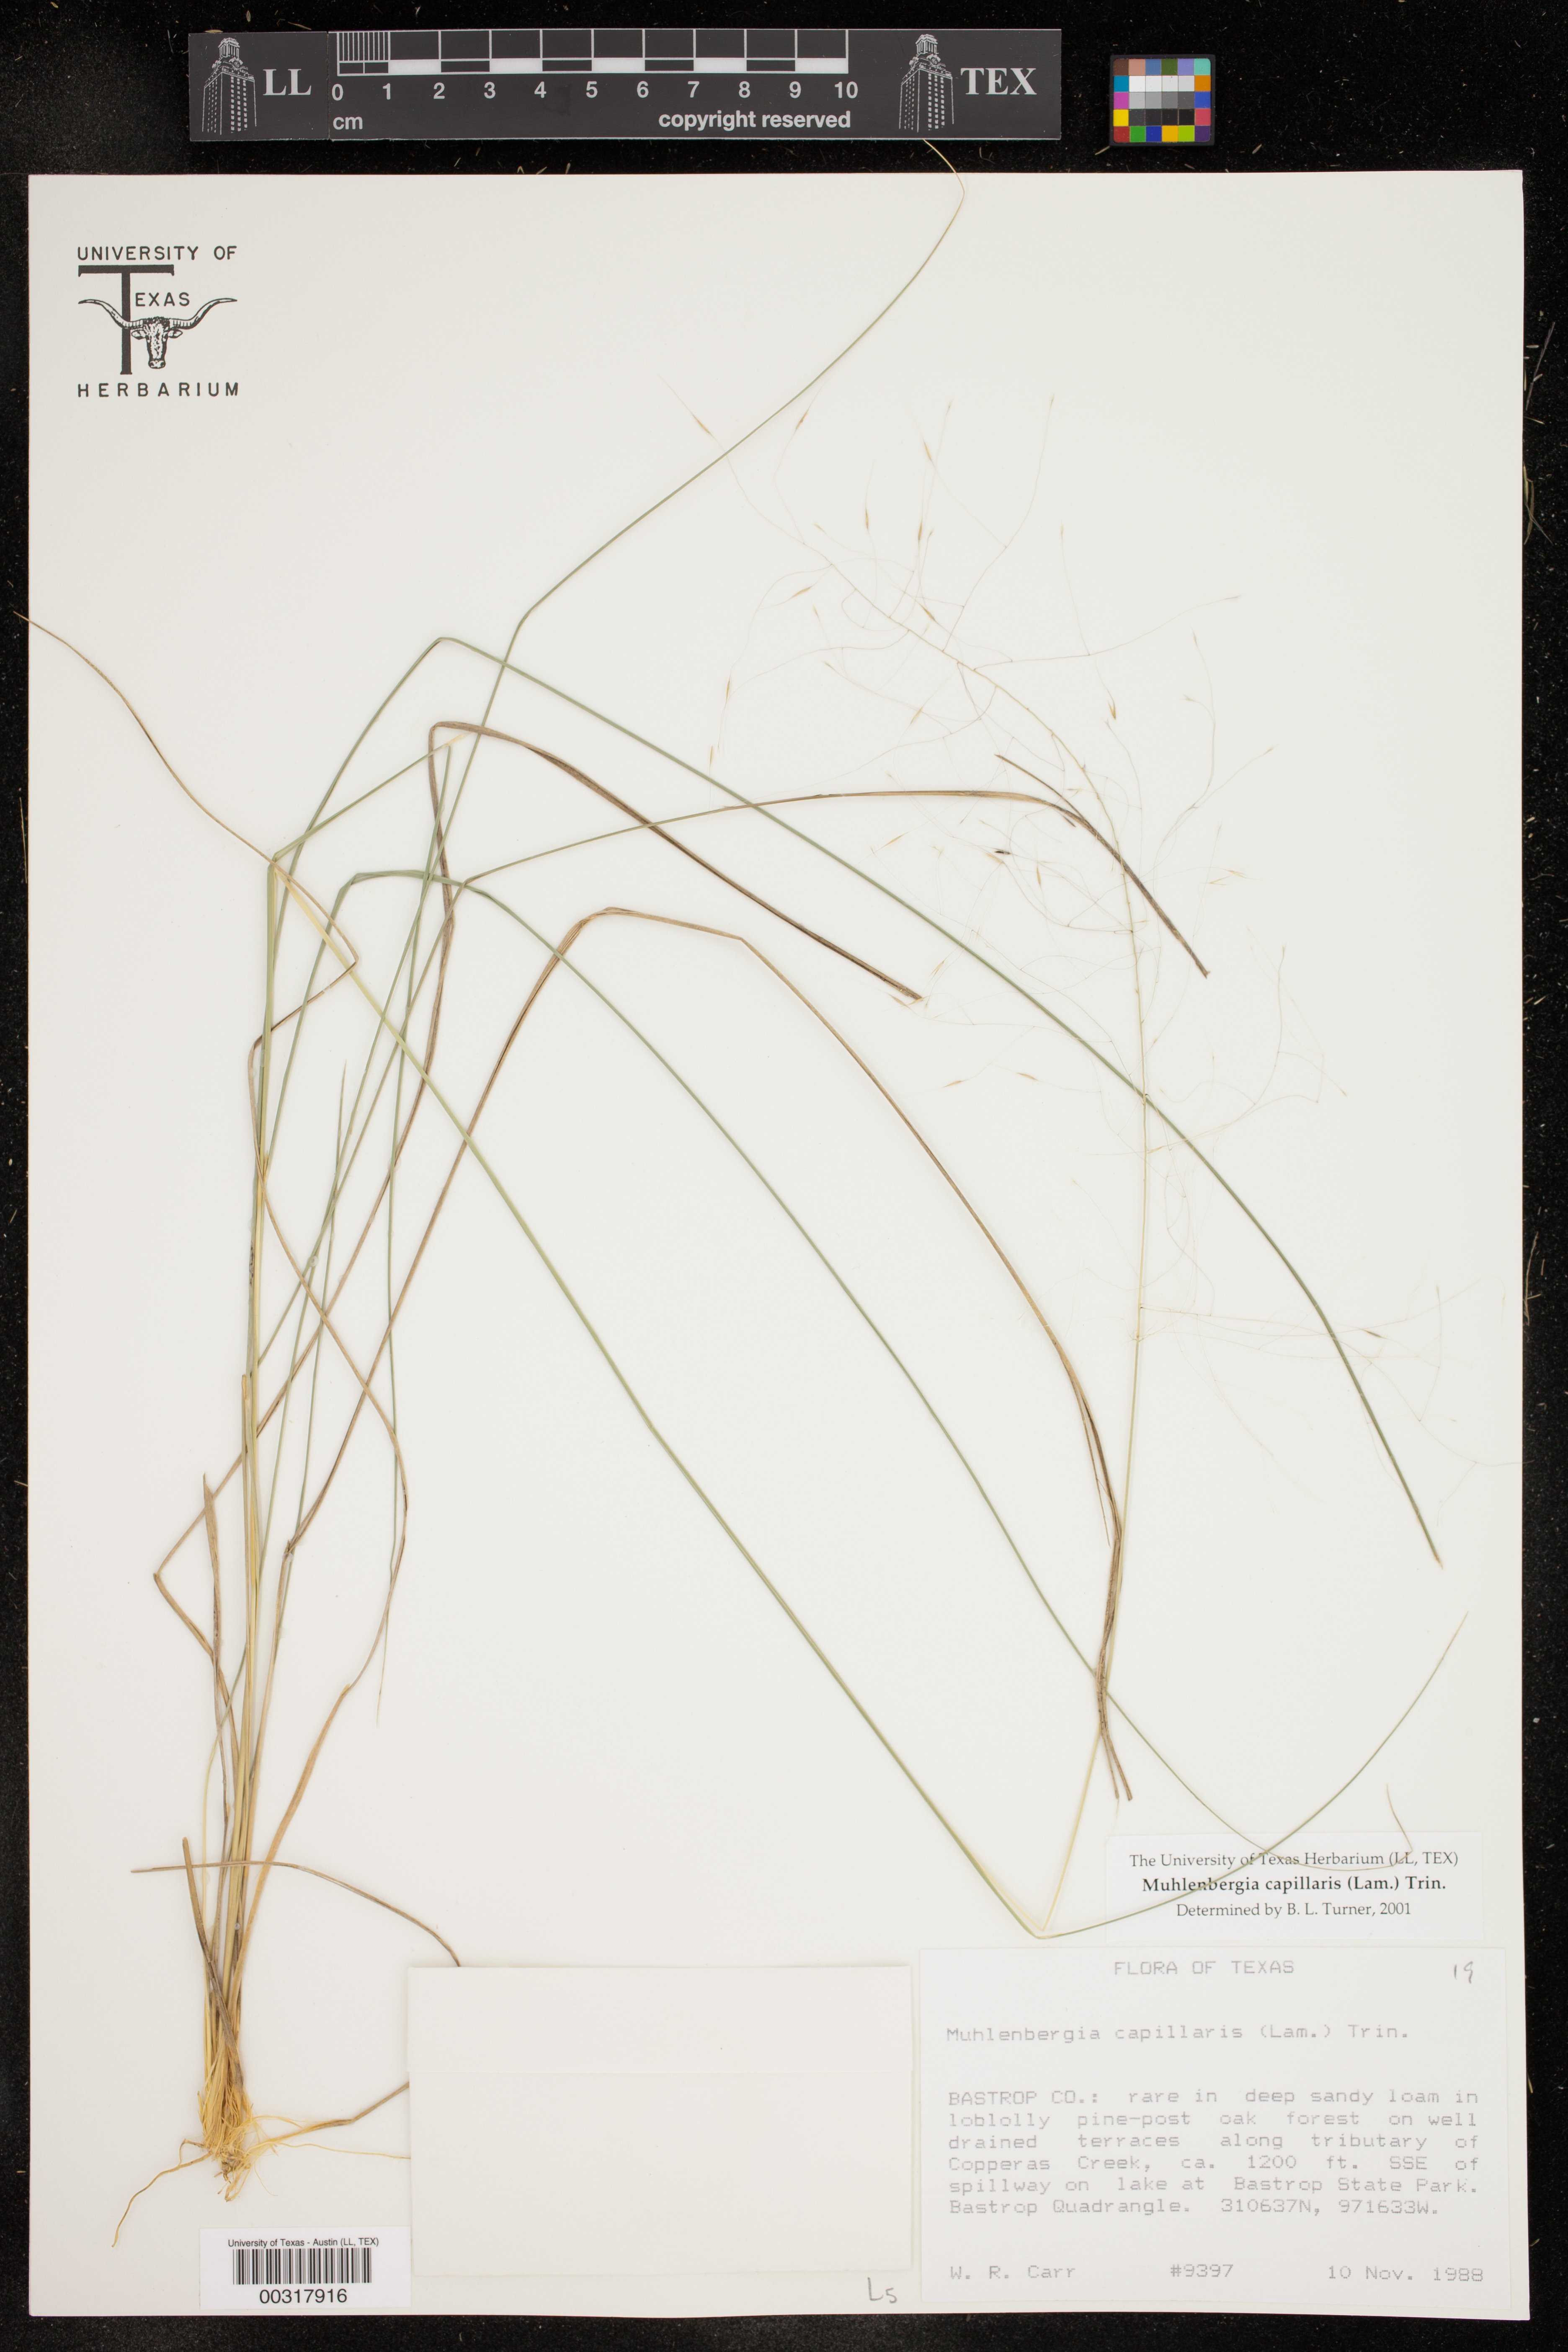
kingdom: Plantae
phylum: Tracheophyta
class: Liliopsida
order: Poales
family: Poaceae
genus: Muhlenbergia
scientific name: Muhlenbergia capillaris
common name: Purple grass
